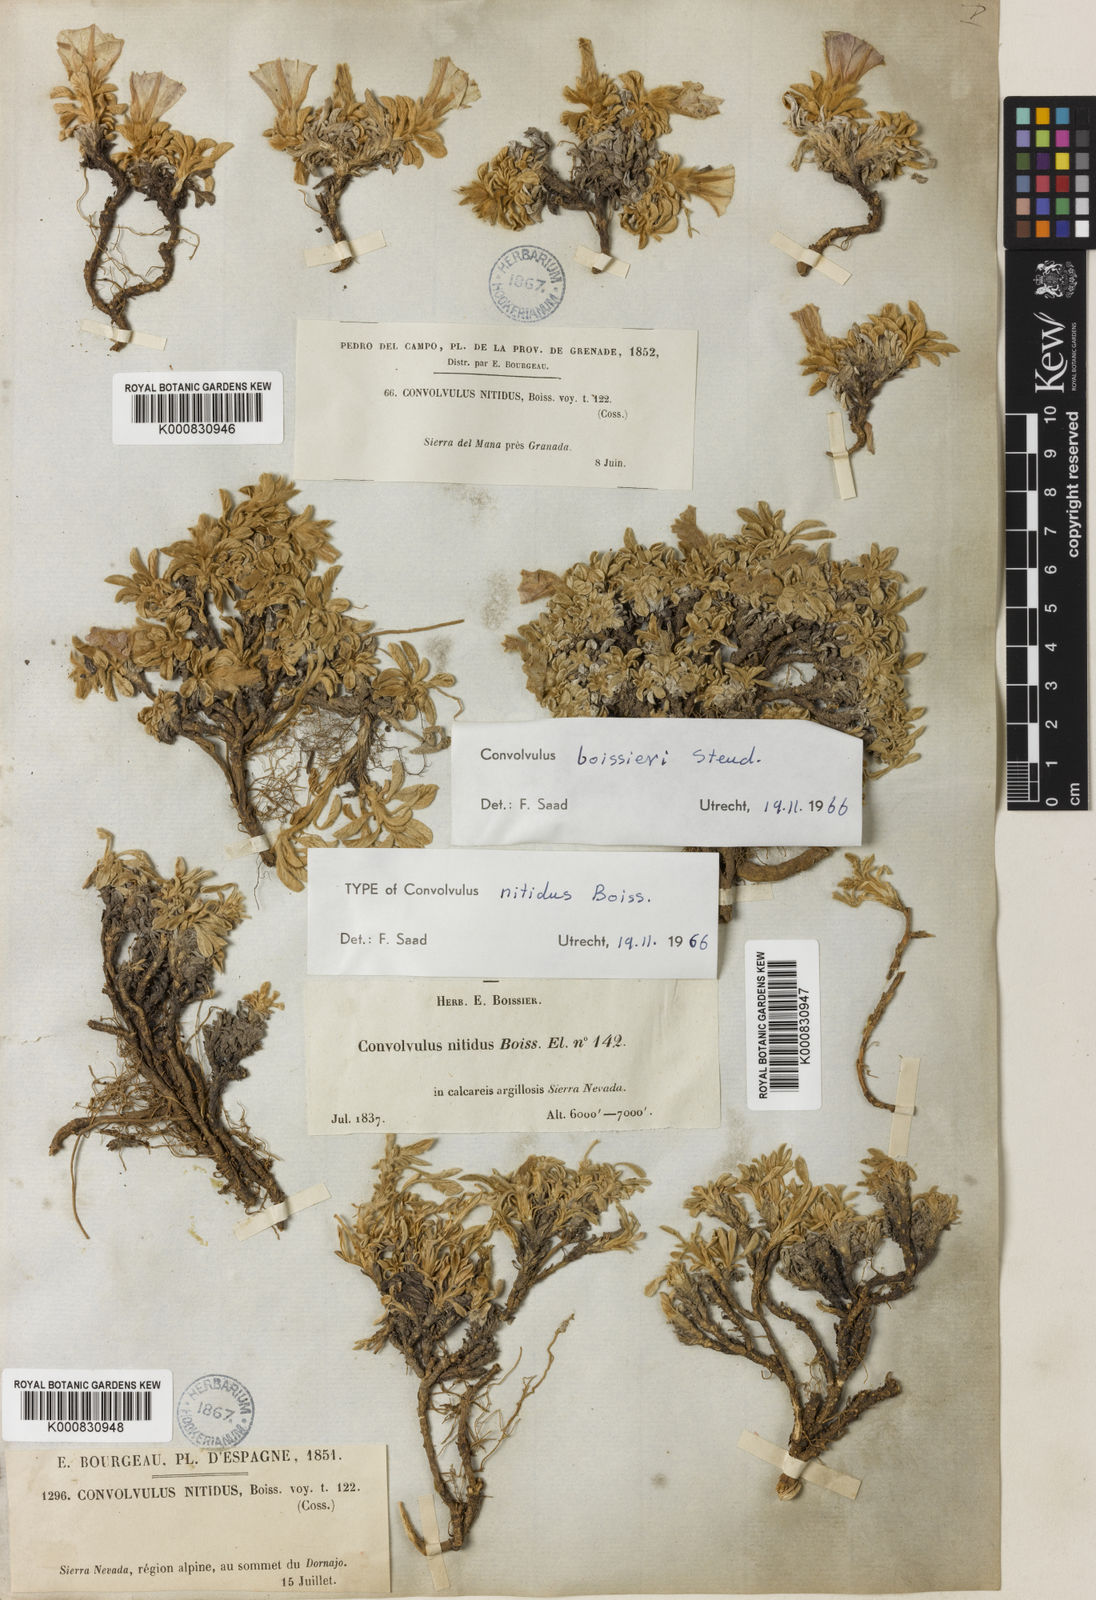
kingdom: Plantae
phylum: Tracheophyta
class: Magnoliopsida
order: Solanales
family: Convolvulaceae
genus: Convolvulus
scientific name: Convolvulus boissieri
